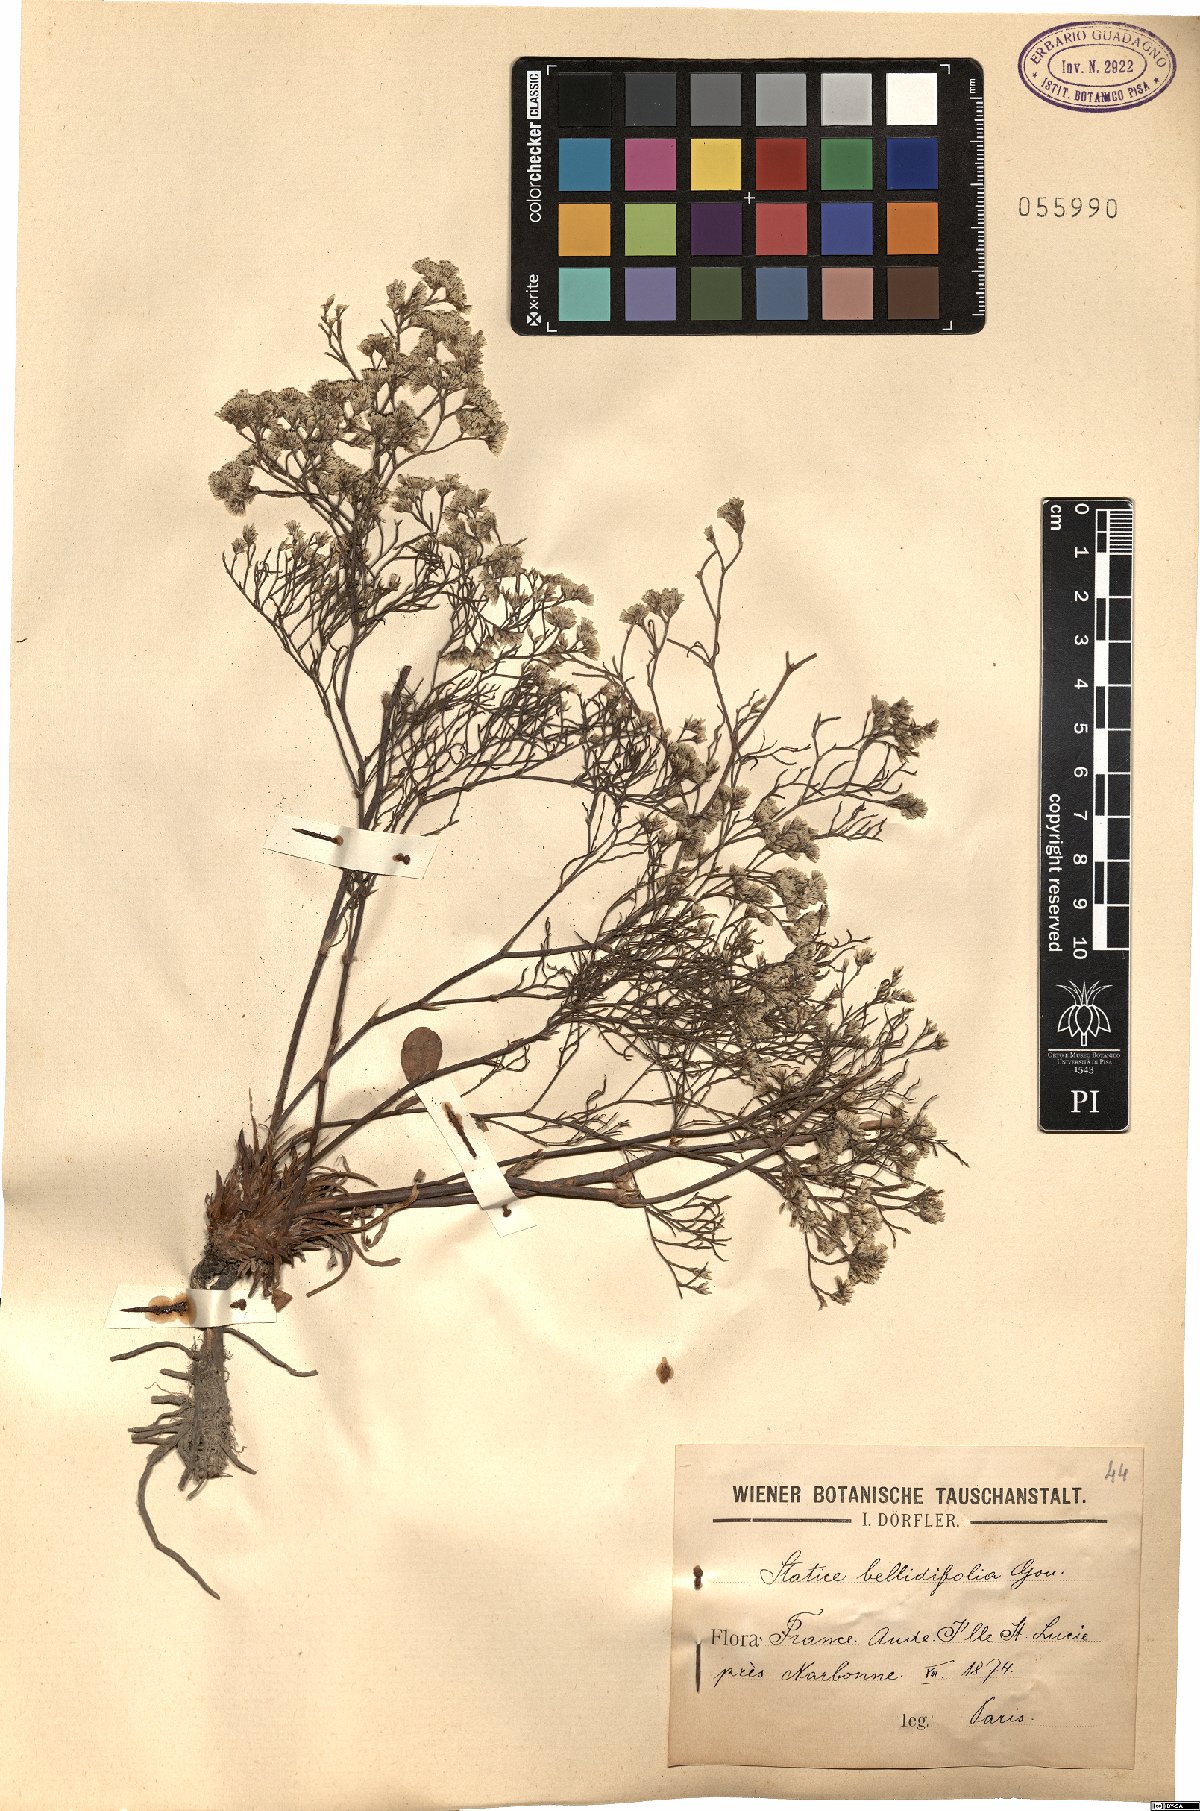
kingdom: Plantae
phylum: Tracheophyta
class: Magnoliopsida
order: Caryophyllales
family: Plumbaginaceae
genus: Limonium
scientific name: Limonium bellidifolium
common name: Matted sea-lavender
